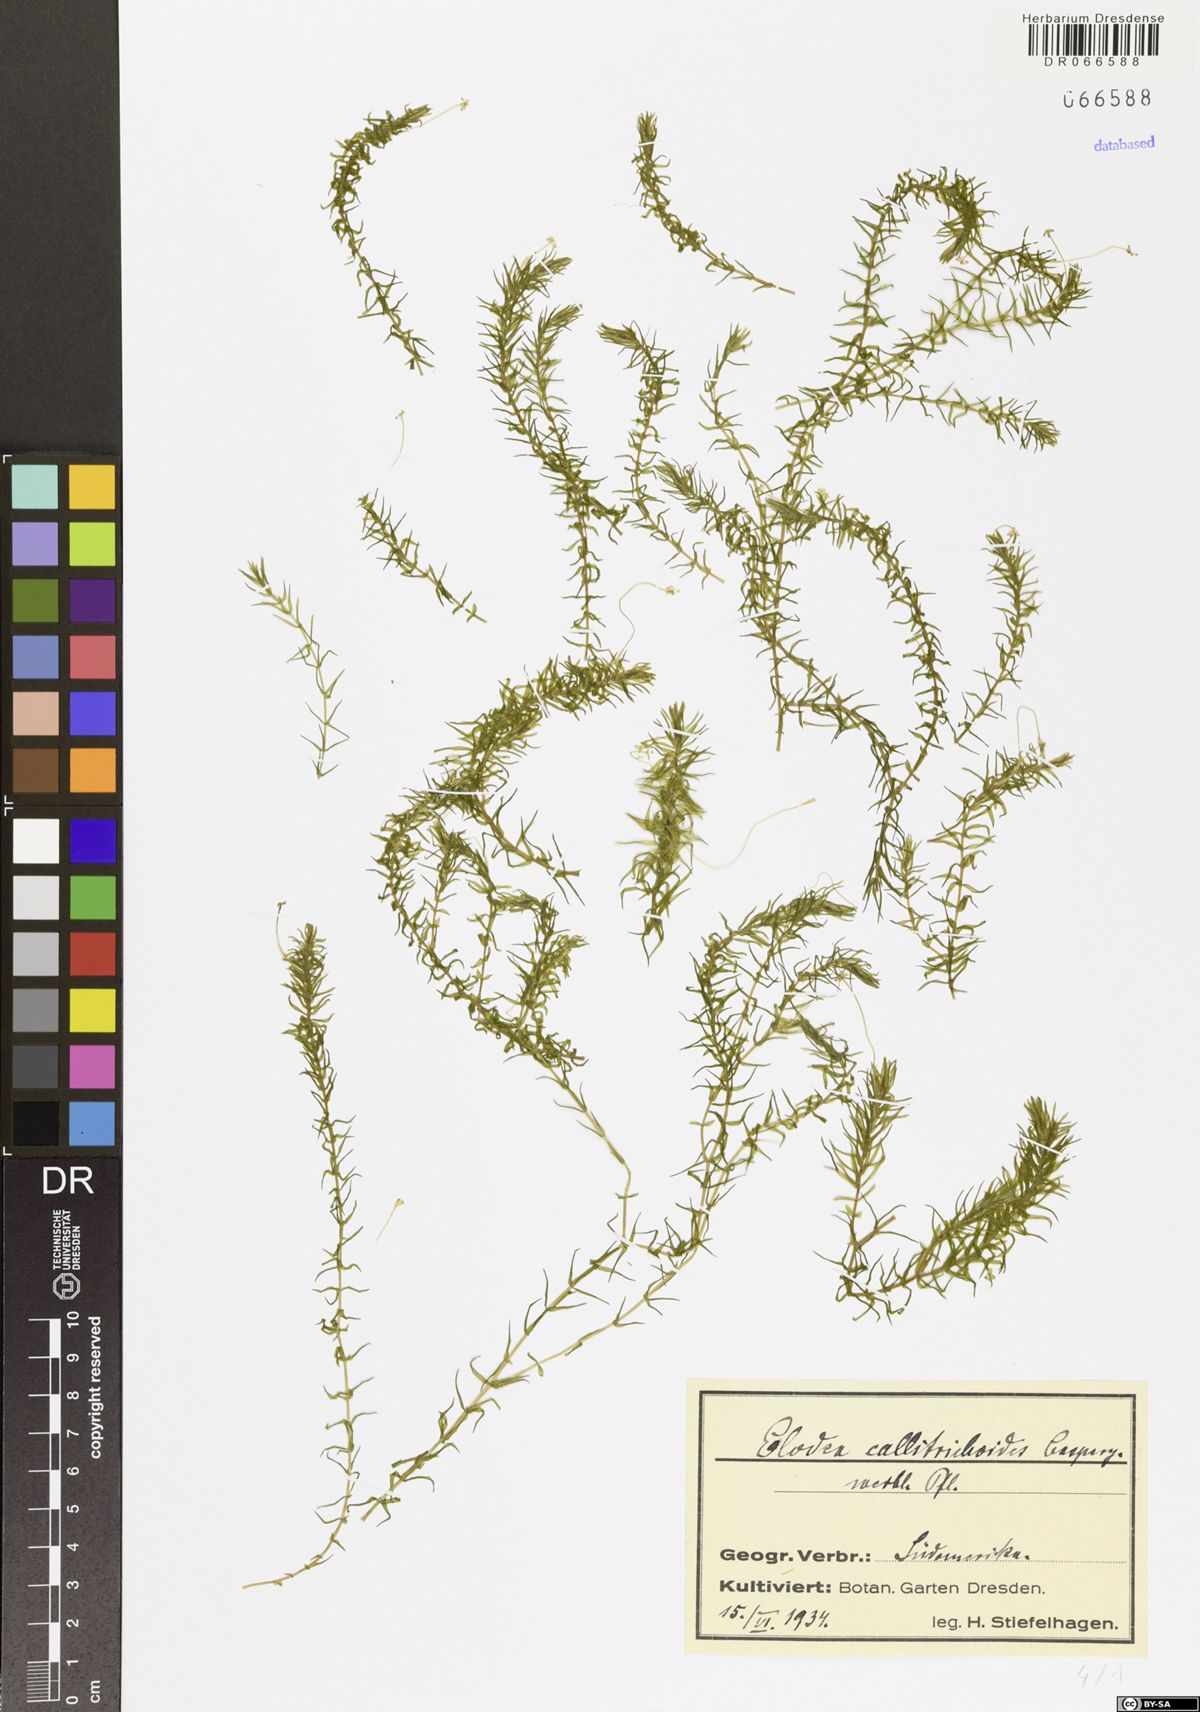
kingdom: Plantae
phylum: Tracheophyta
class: Liliopsida
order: Alismatales
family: Hydrocharitaceae
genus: Elodea
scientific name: Elodea callitrichoides
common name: South american waterweed
